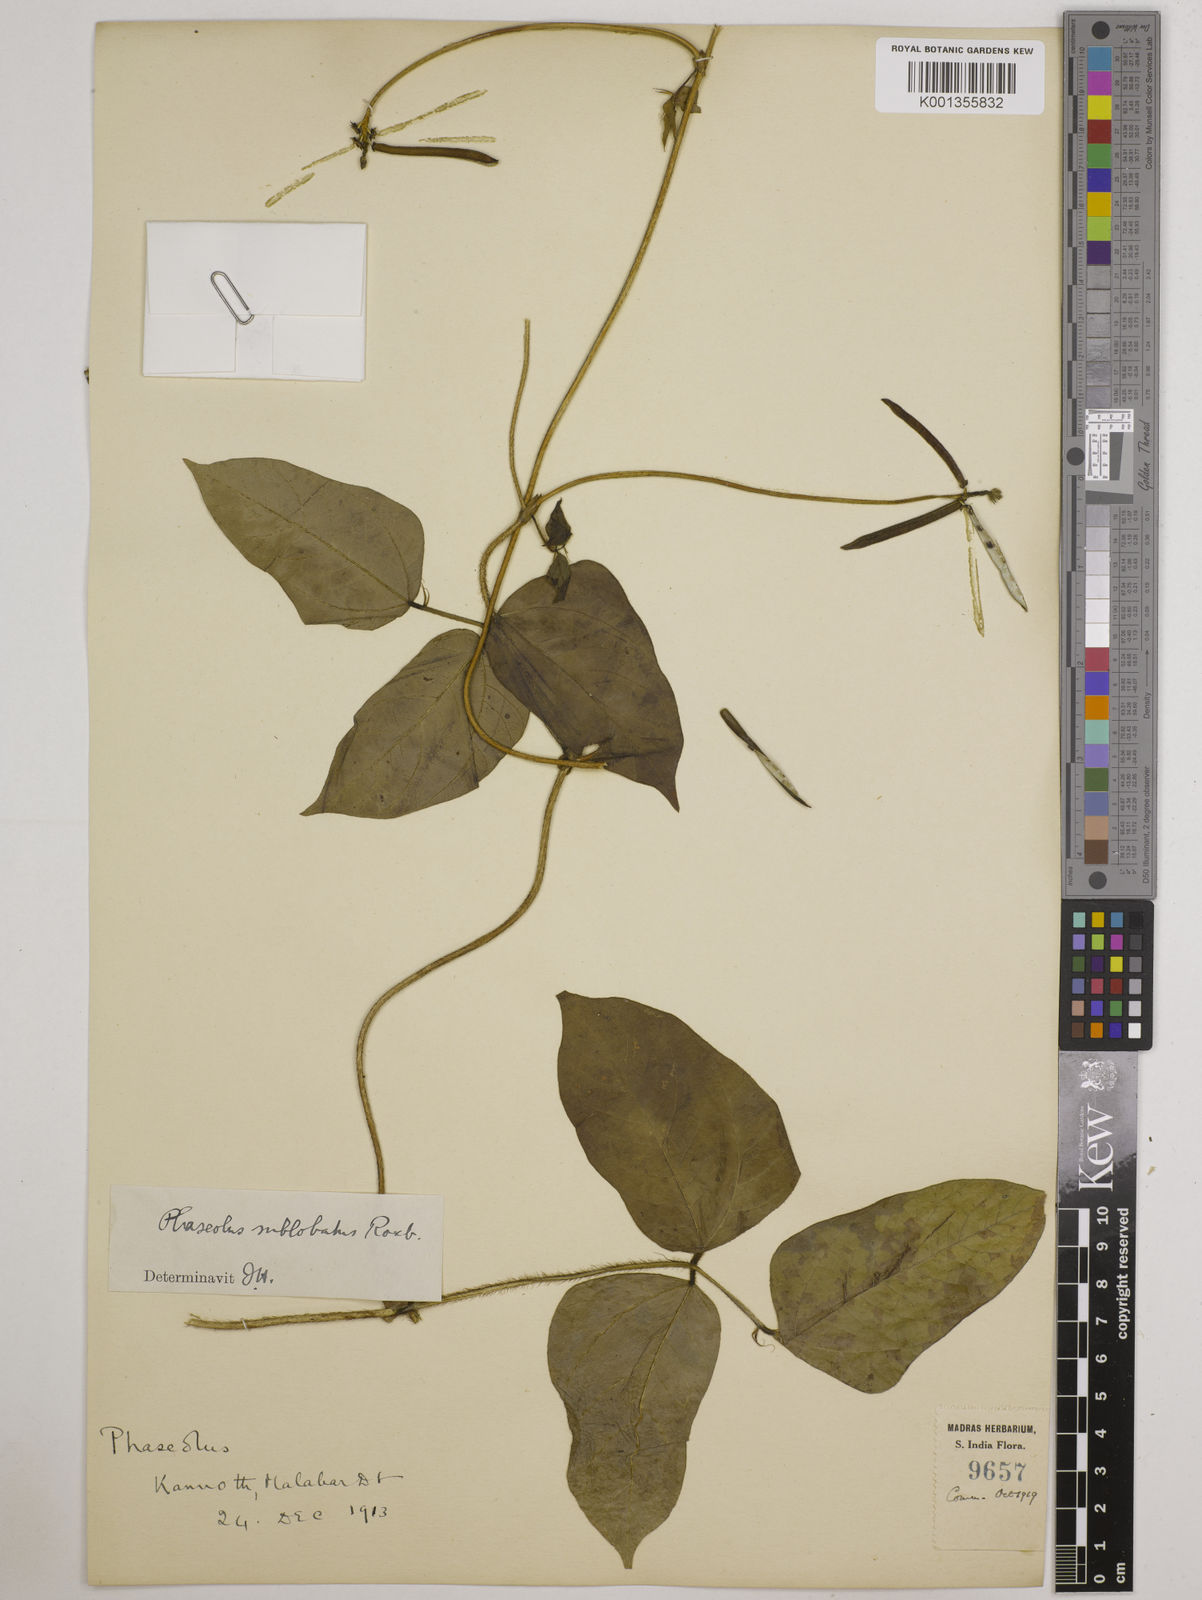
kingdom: Plantae
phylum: Tracheophyta
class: Magnoliopsida
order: Fabales
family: Fabaceae
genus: Vigna
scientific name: Vigna radiata
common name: Mung-bean
